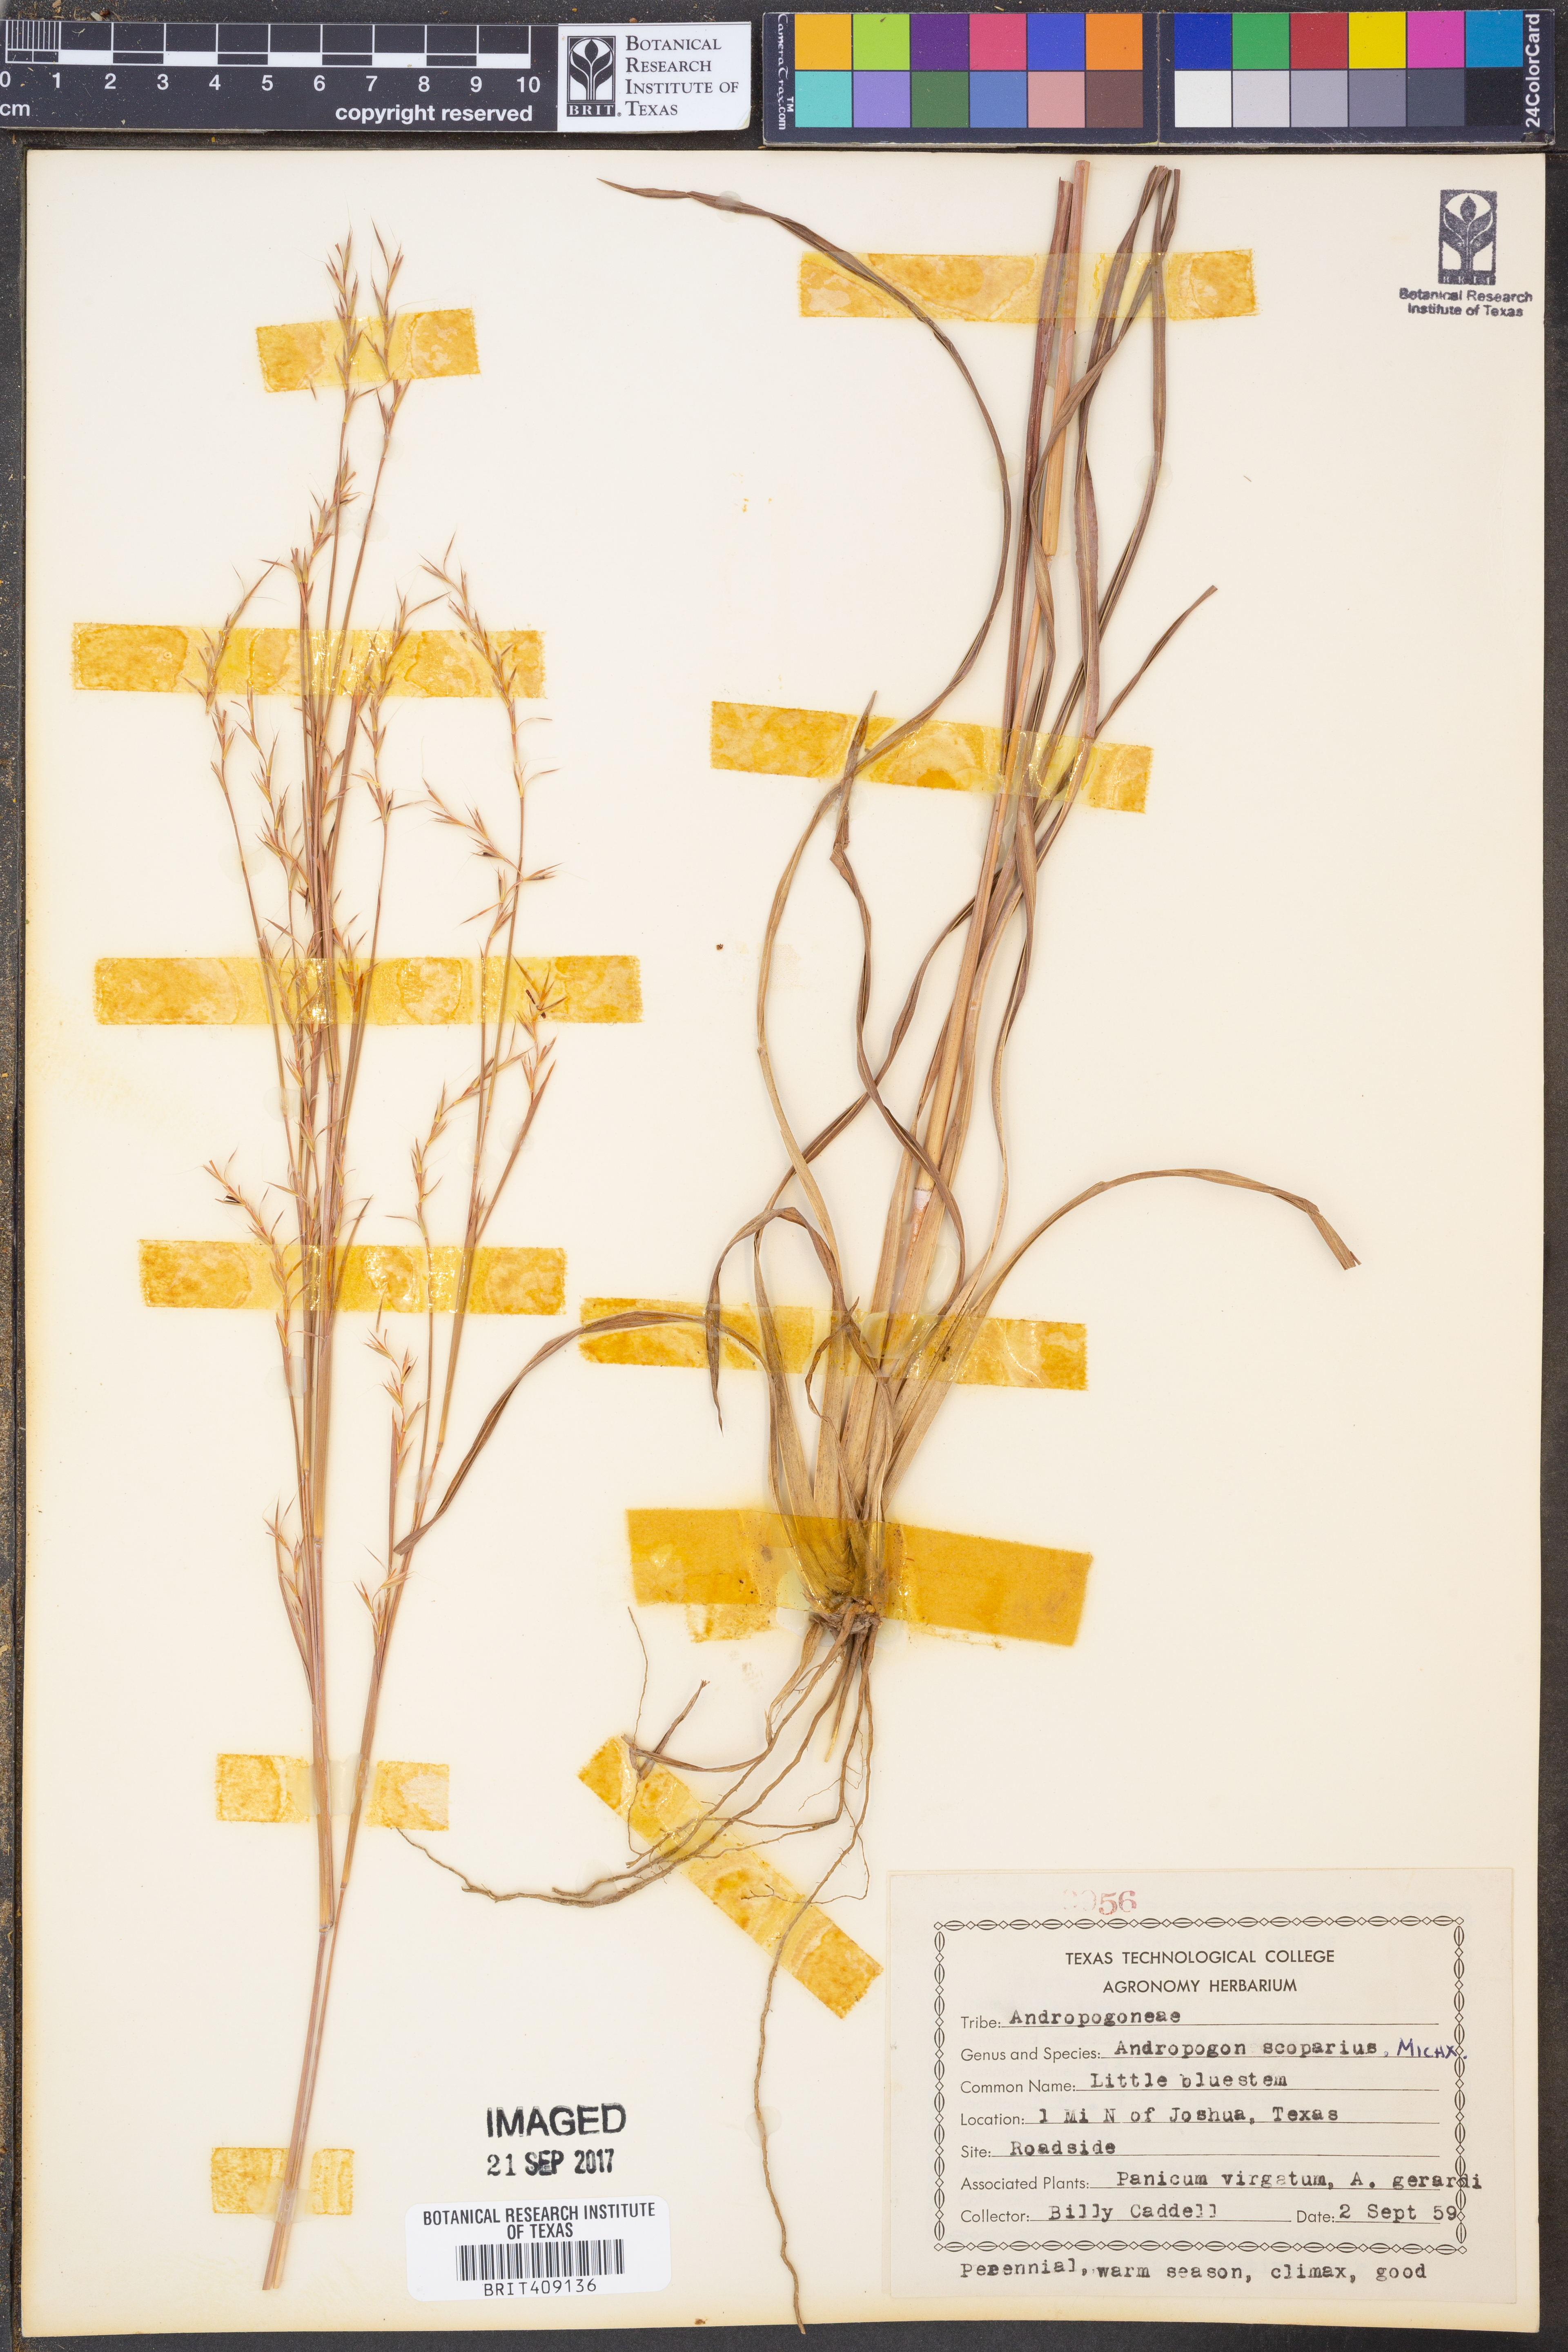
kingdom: Plantae
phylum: Tracheophyta
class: Liliopsida
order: Poales
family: Poaceae
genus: Schizachyrium
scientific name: Schizachyrium scoparium
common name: Little bluestem
